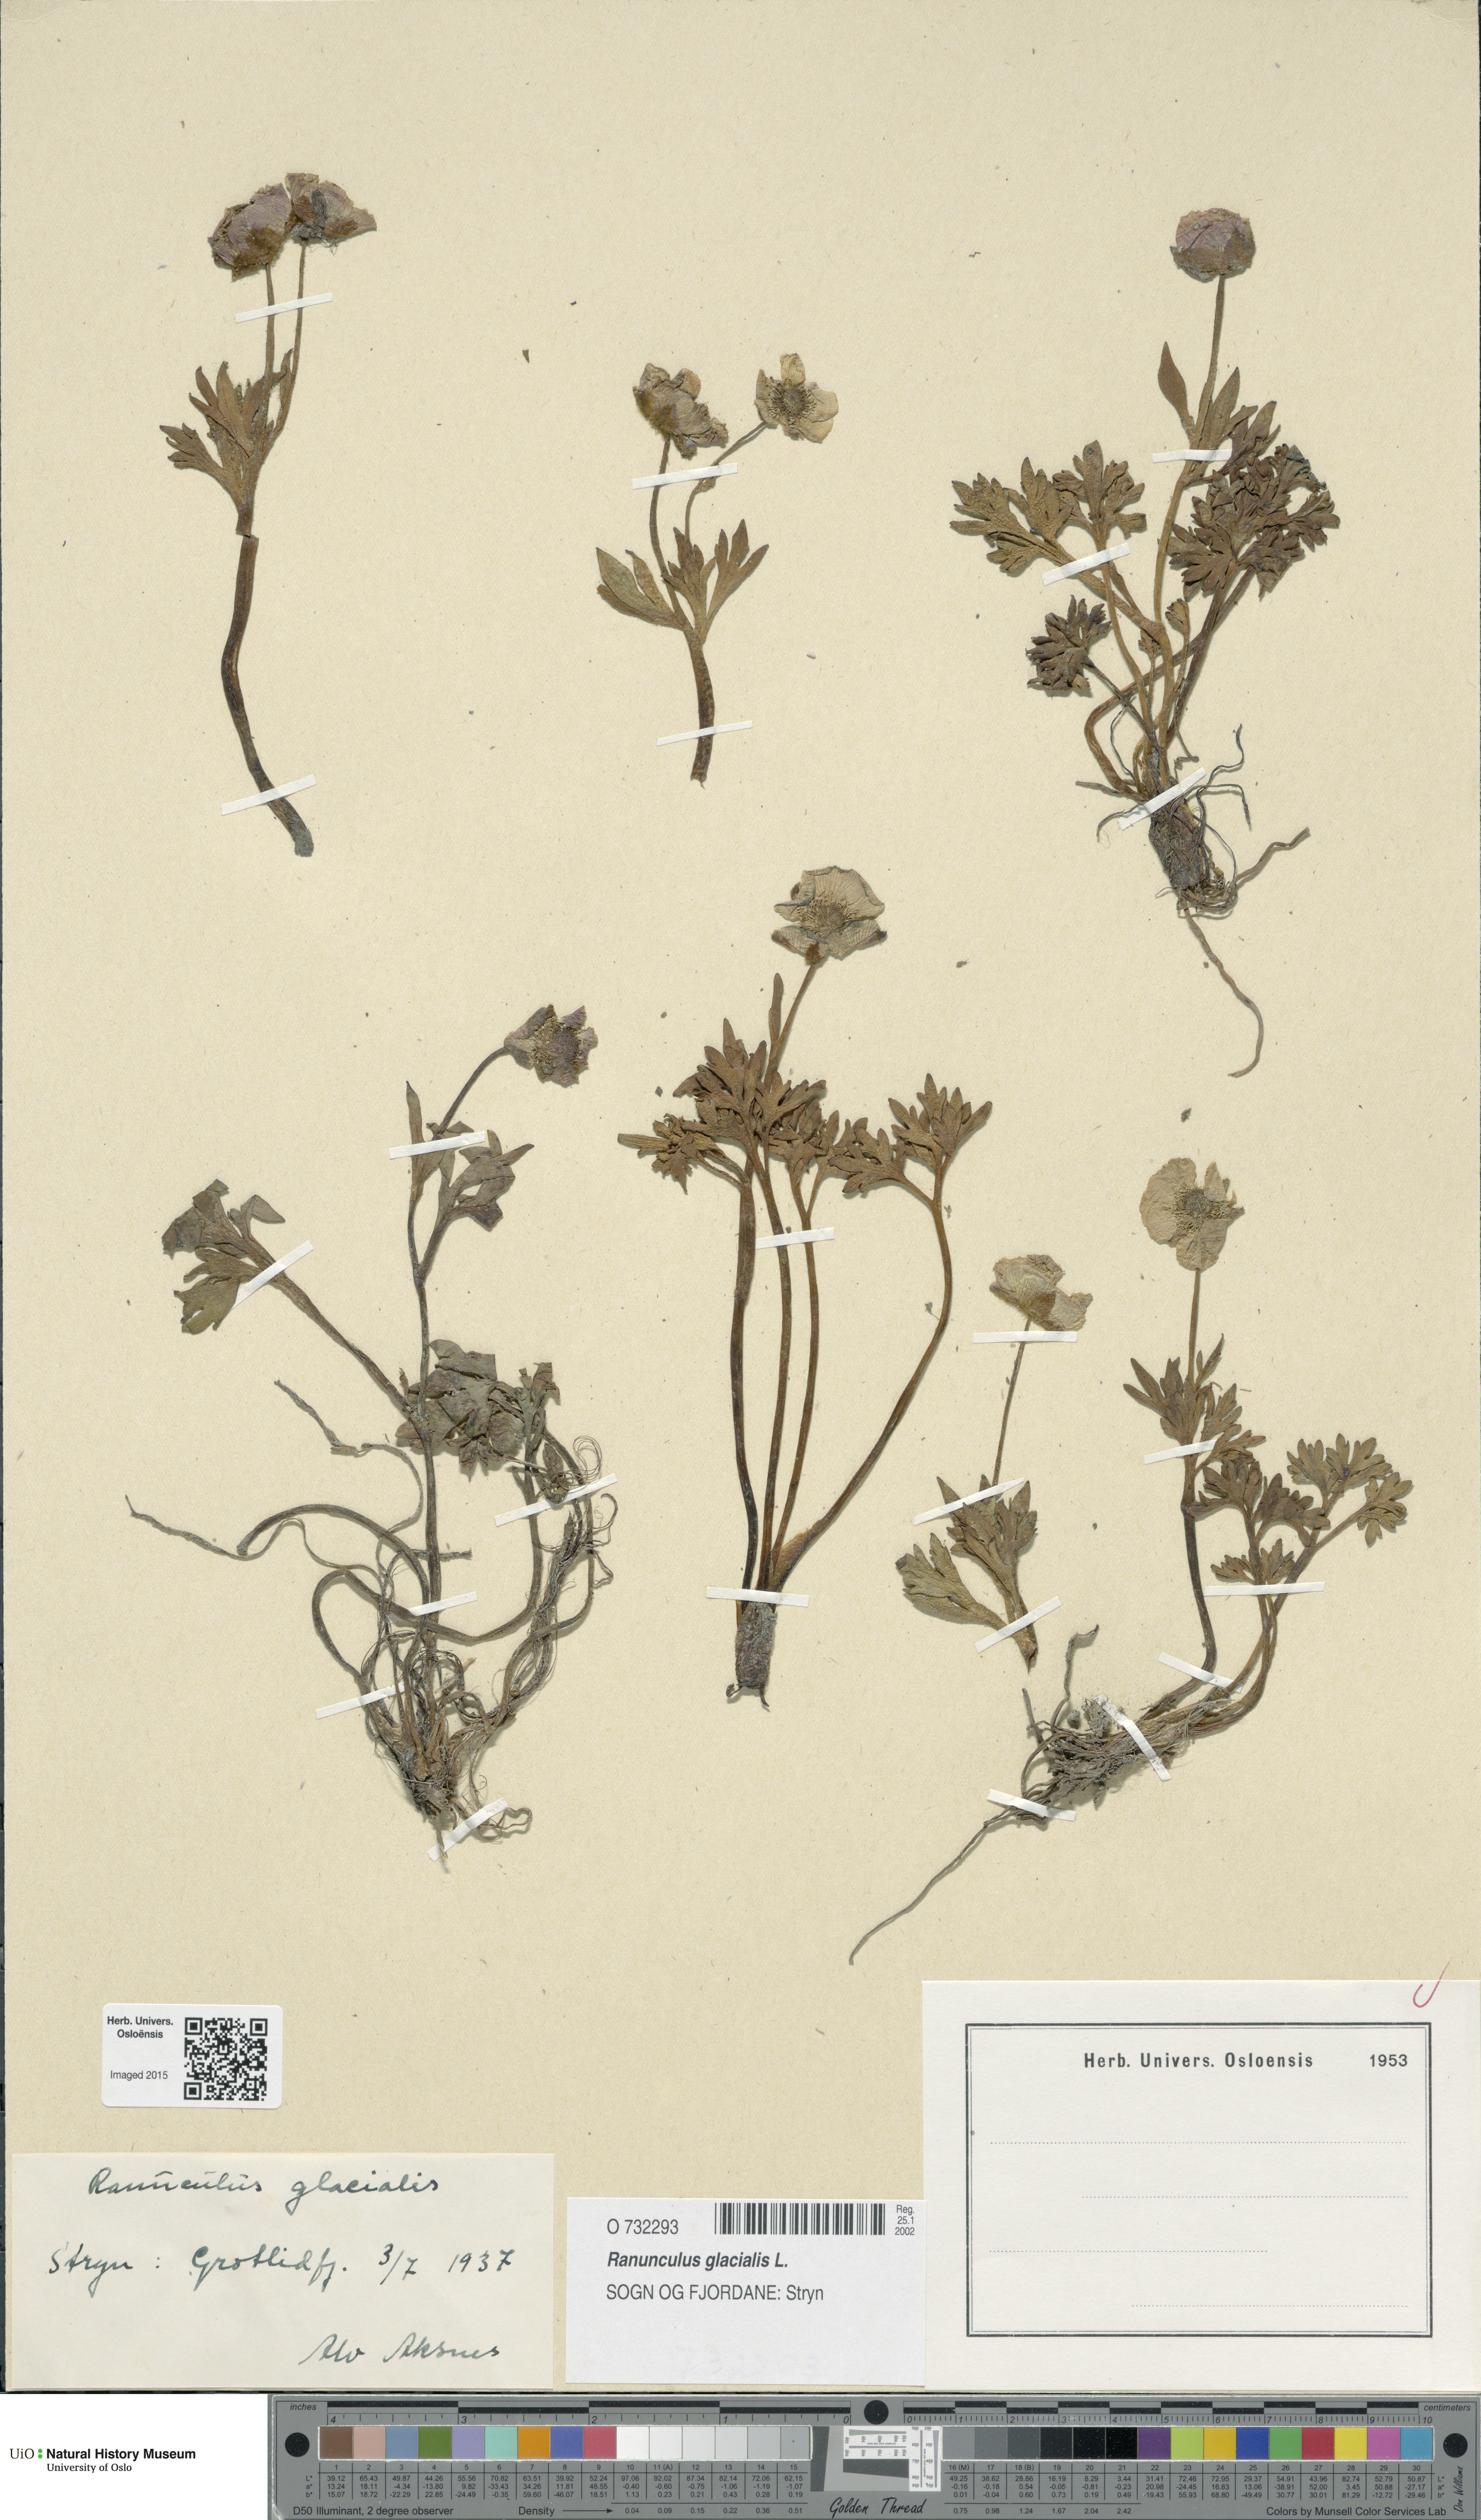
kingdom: Plantae
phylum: Tracheophyta
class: Magnoliopsida
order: Ranunculales
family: Ranunculaceae
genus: Ranunculus
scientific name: Ranunculus glacialis
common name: Glacier buttercup
